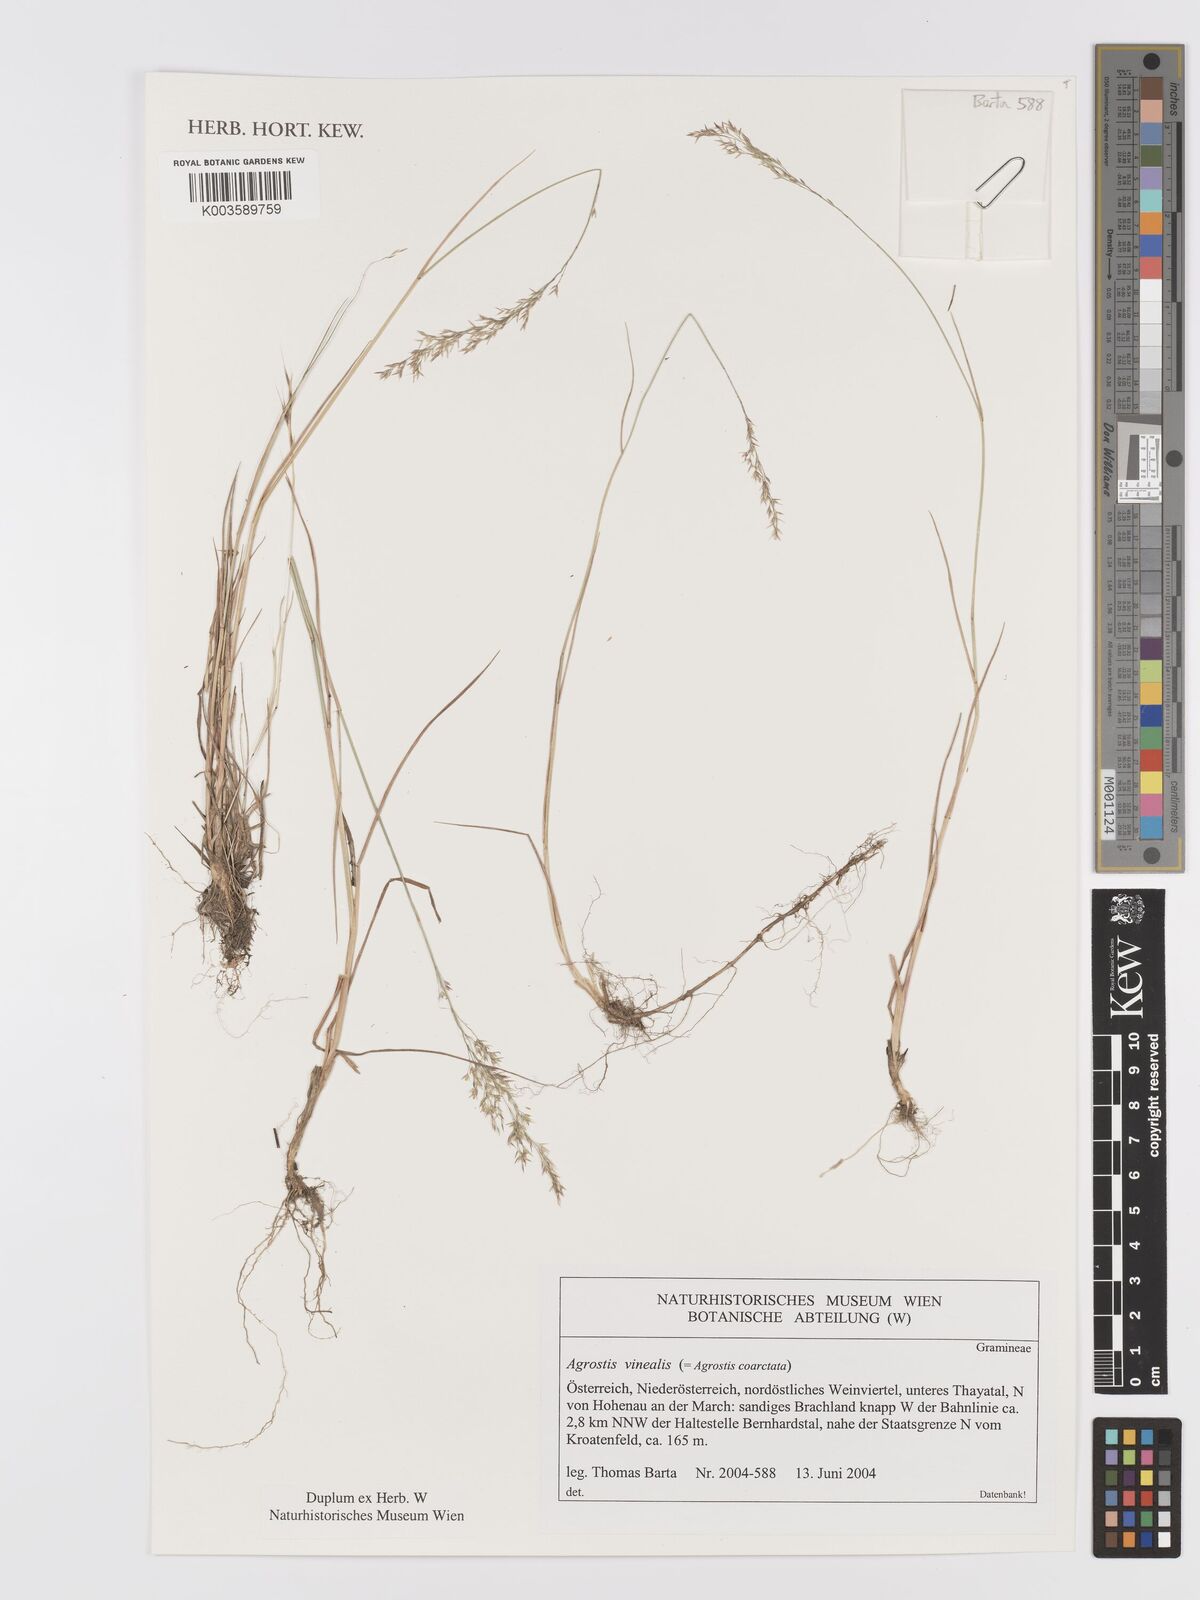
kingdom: Plantae
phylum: Tracheophyta
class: Liliopsida
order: Poales
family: Poaceae
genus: Agrostis
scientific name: Agrostis
